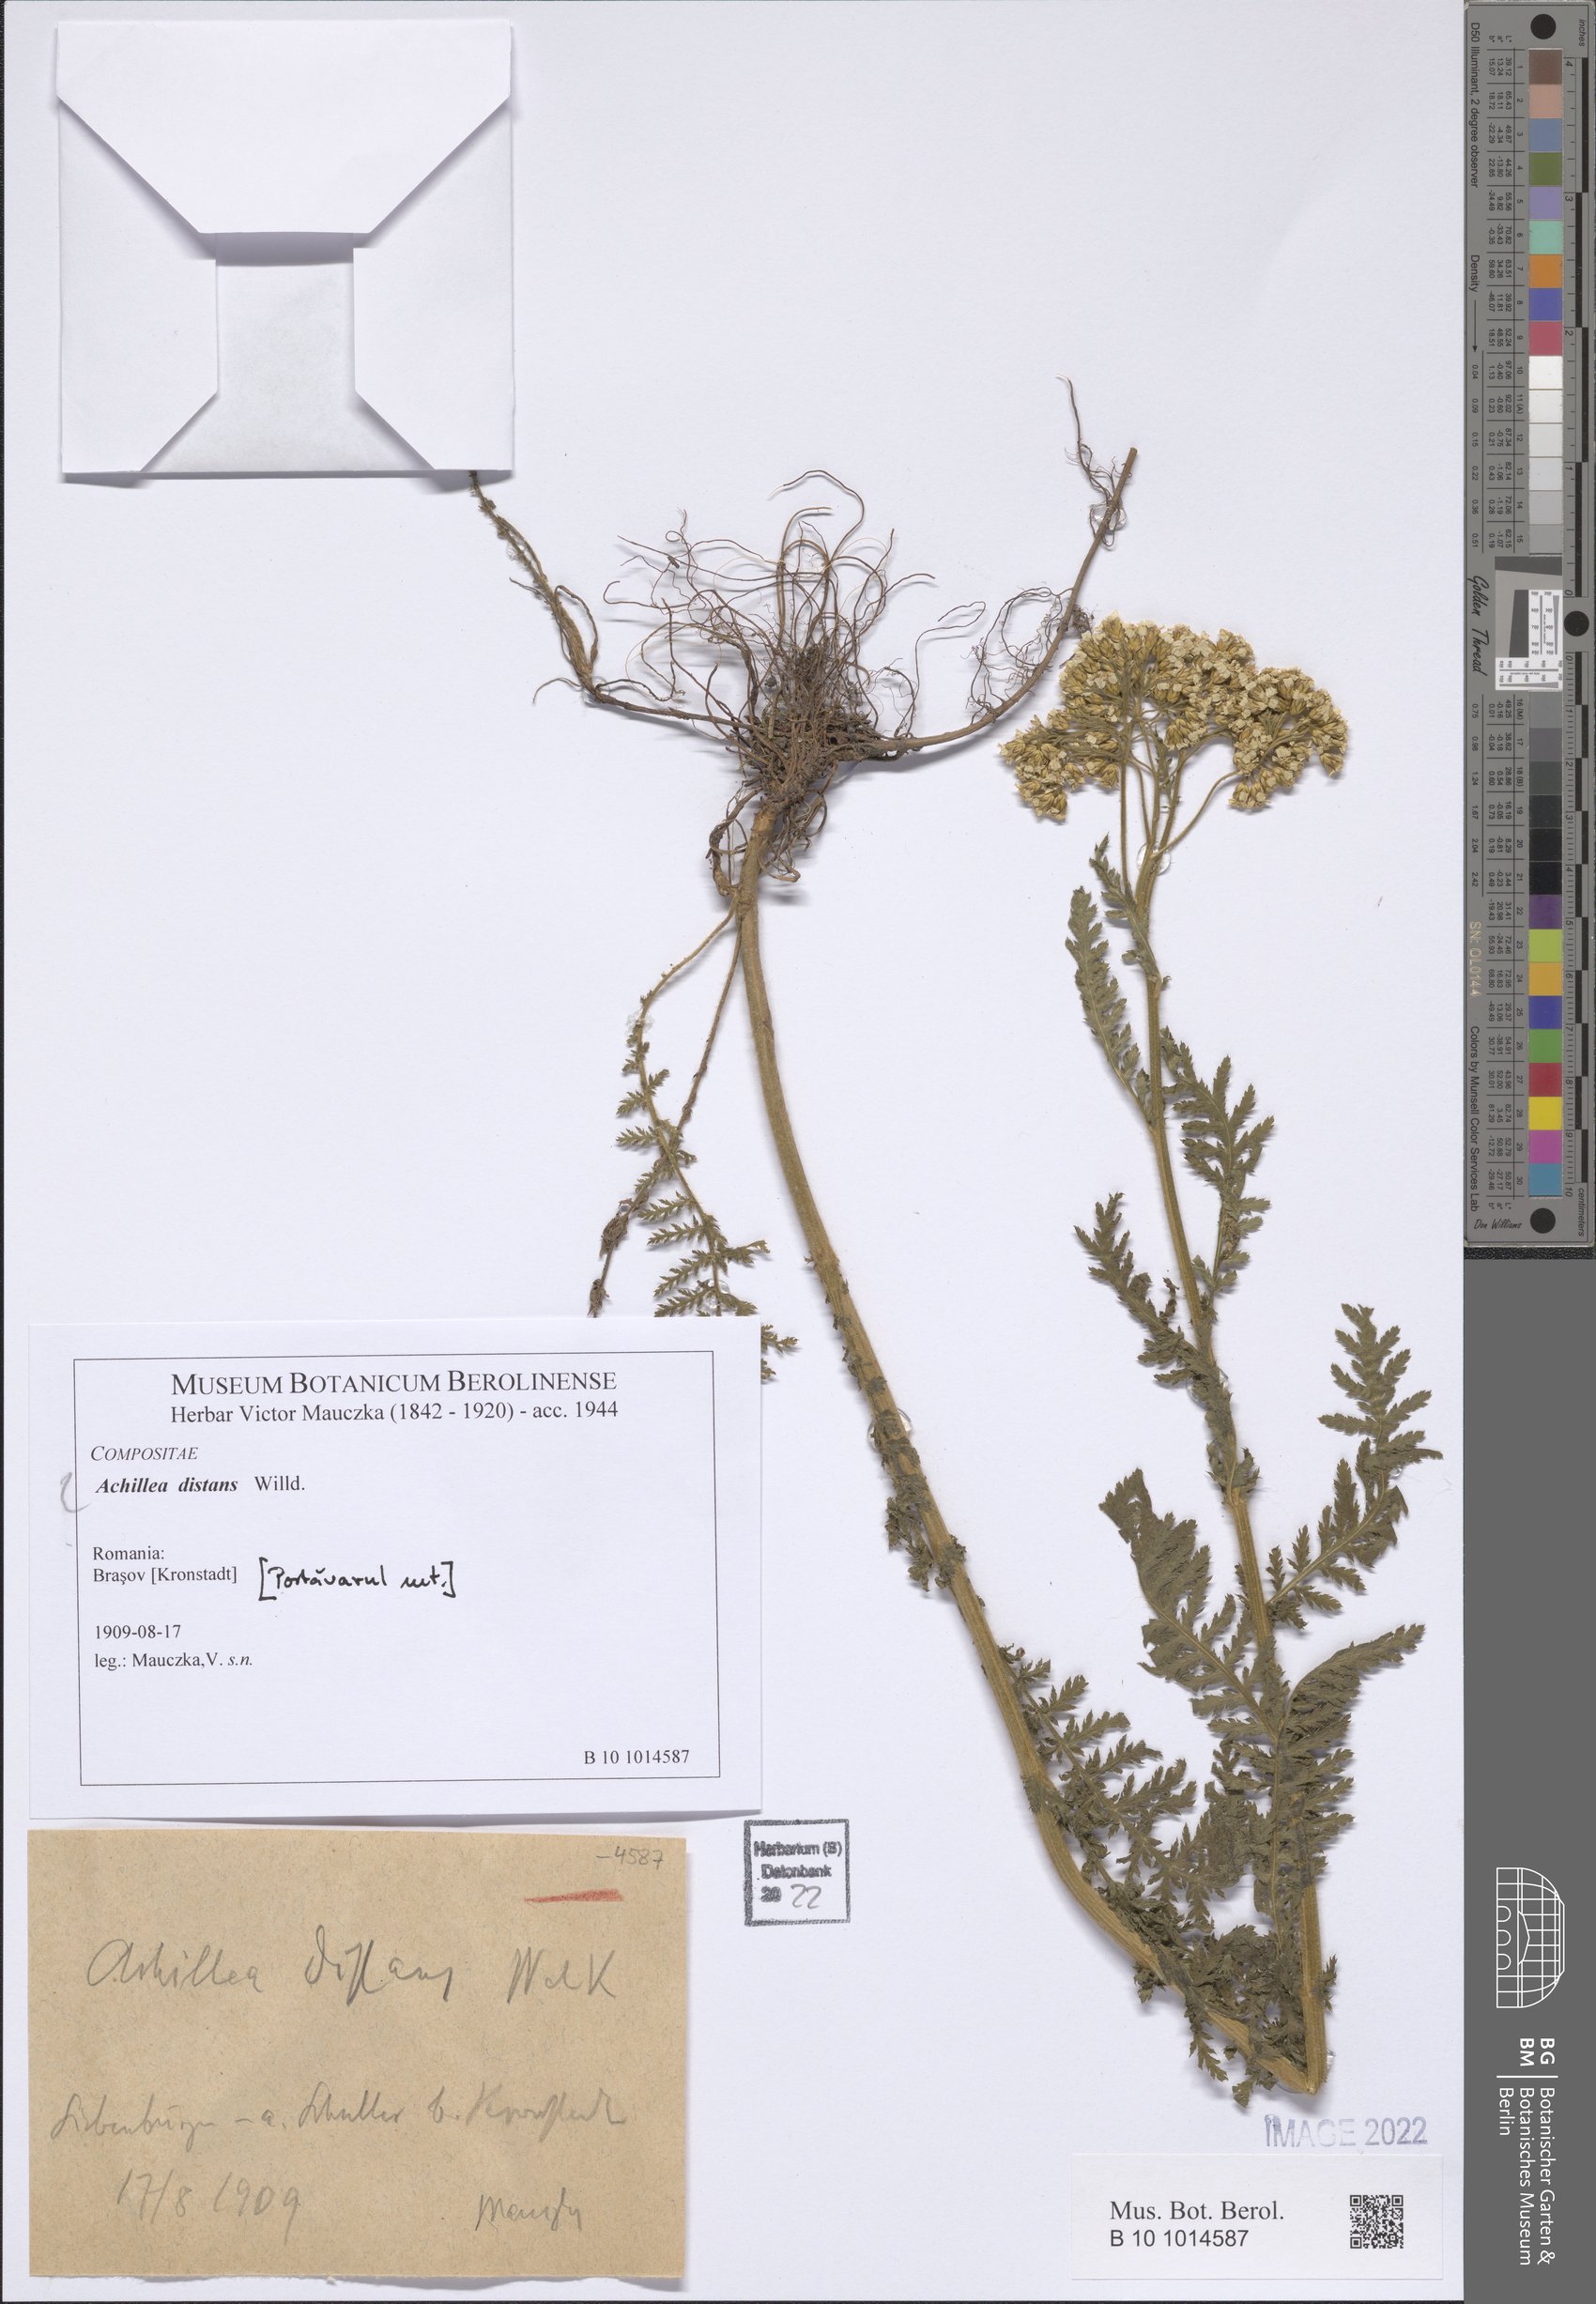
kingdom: Plantae
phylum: Tracheophyta
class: Magnoliopsida
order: Asterales
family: Asteraceae
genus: Achillea
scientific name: Achillea distans
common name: Tall yarrow
